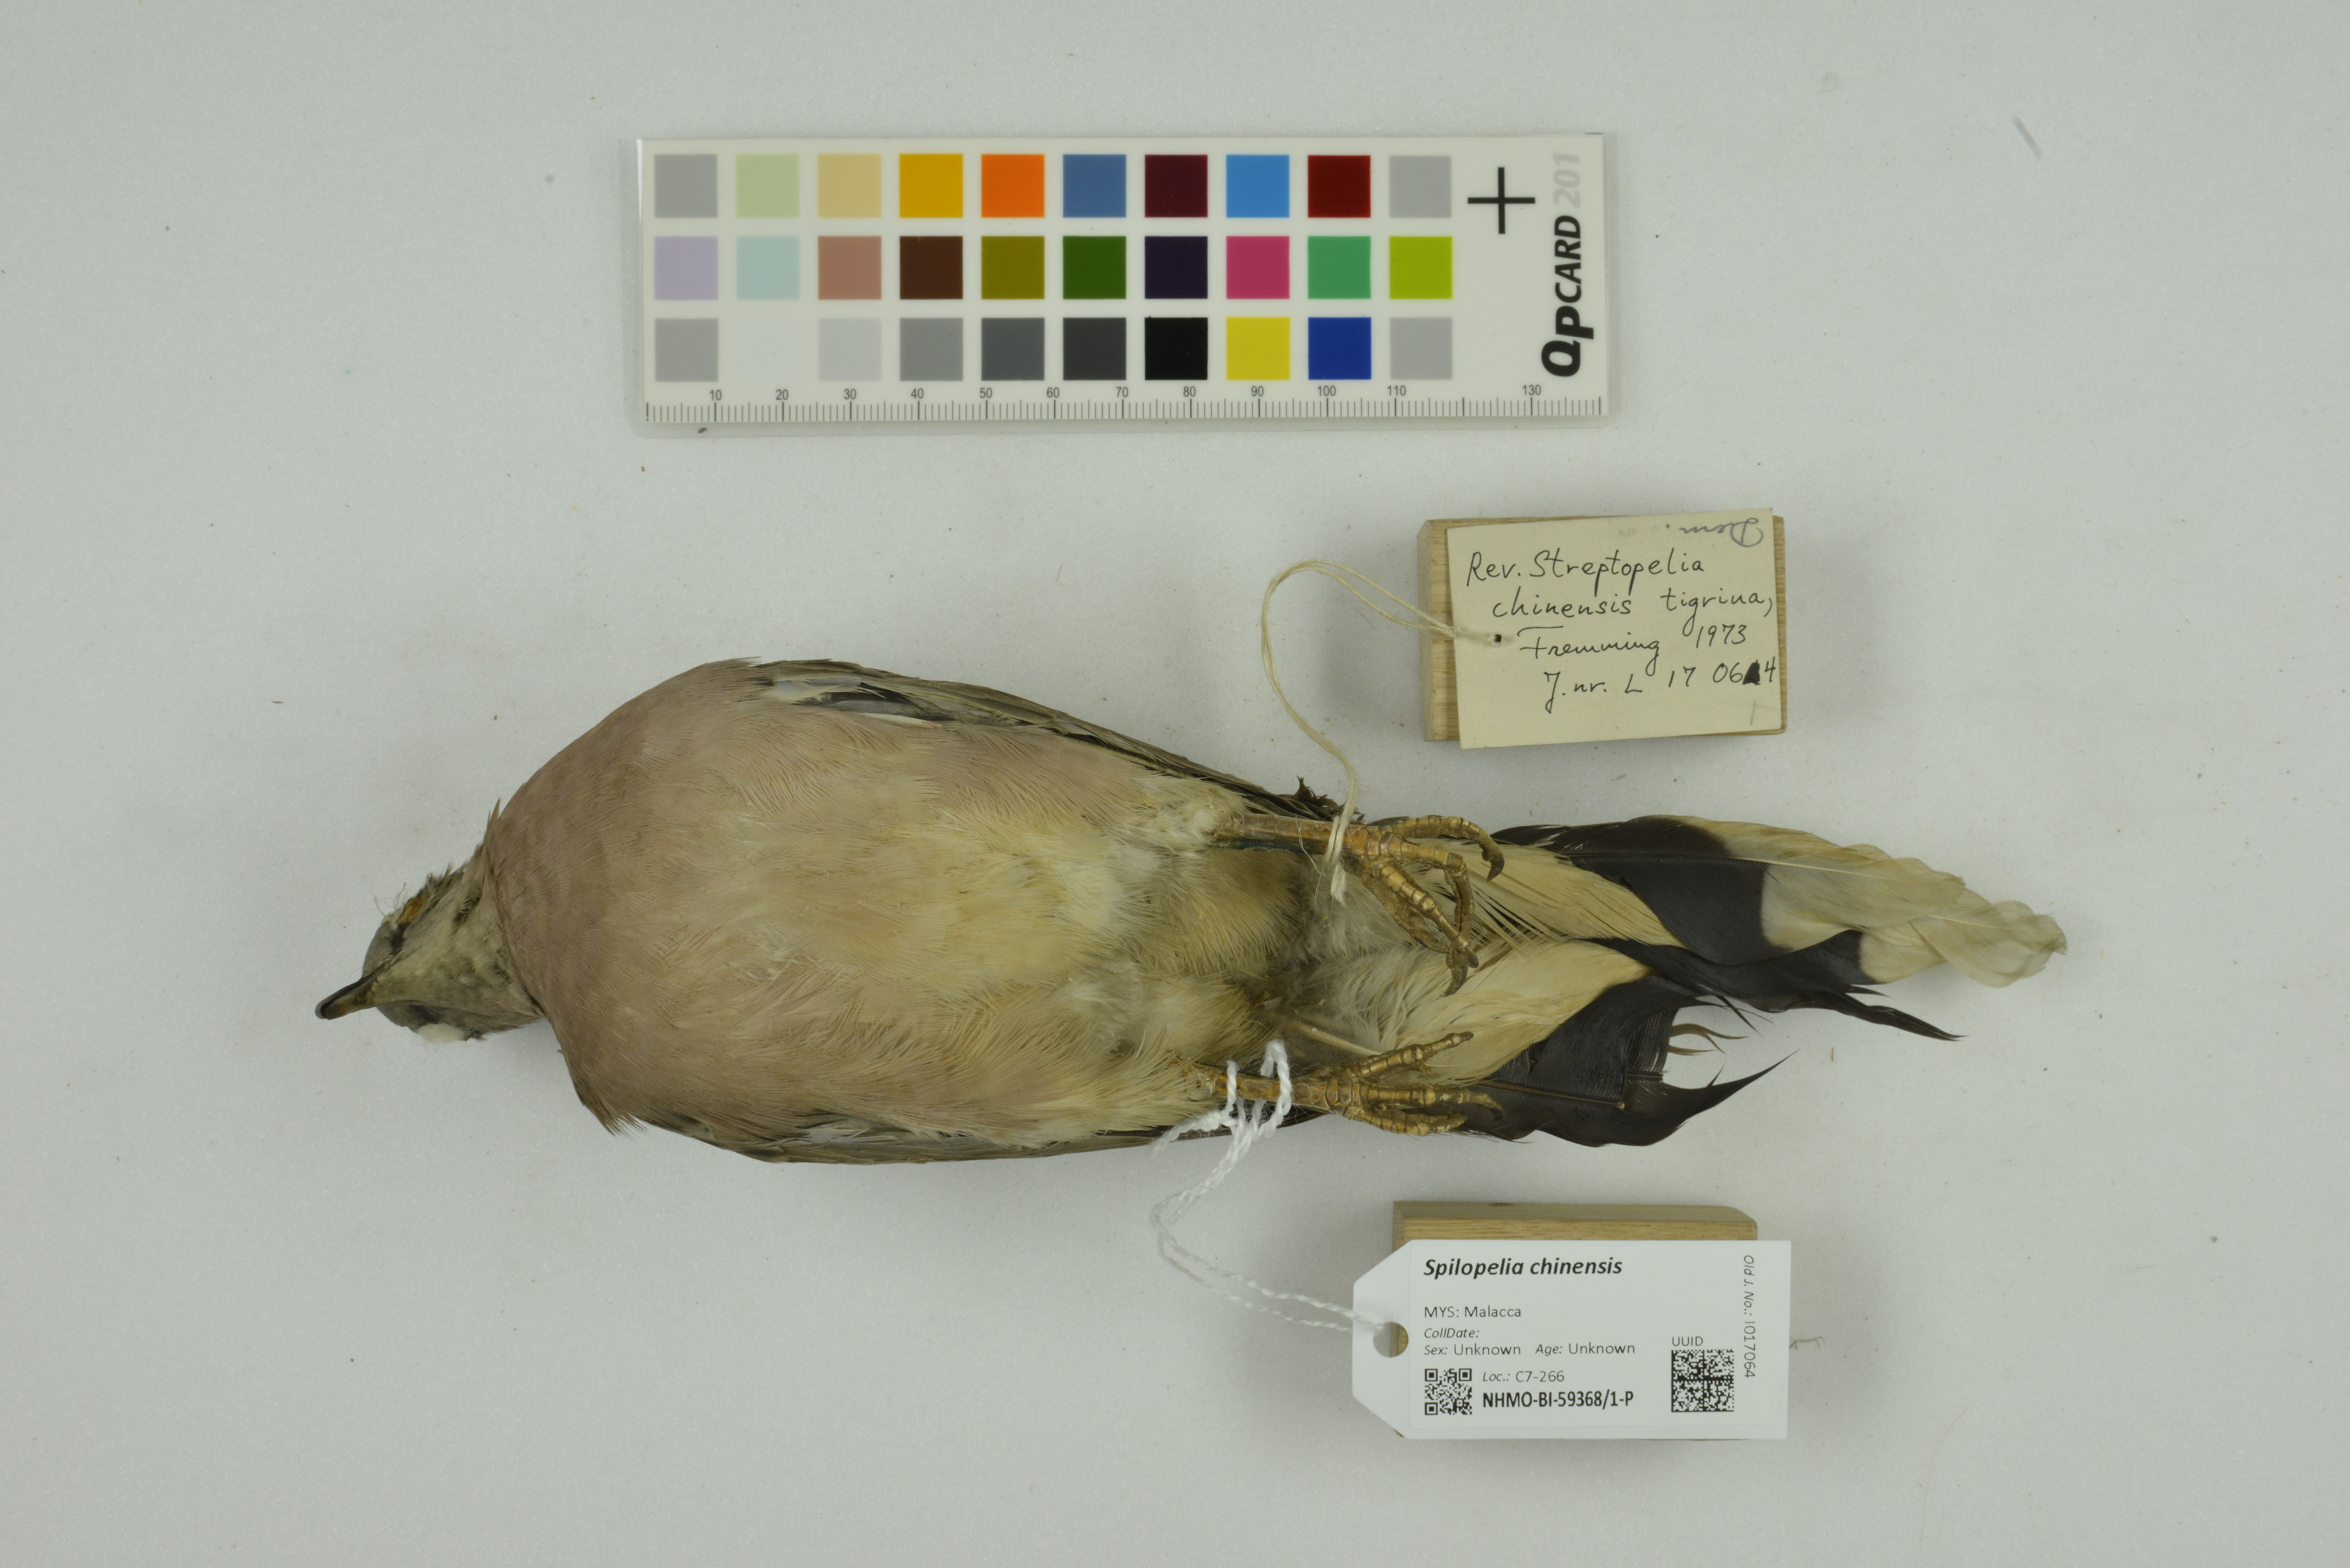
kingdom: Animalia
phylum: Chordata
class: Aves
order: Columbiformes
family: Columbidae
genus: Spilopelia
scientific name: Spilopelia chinensis
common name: Spotted dove
